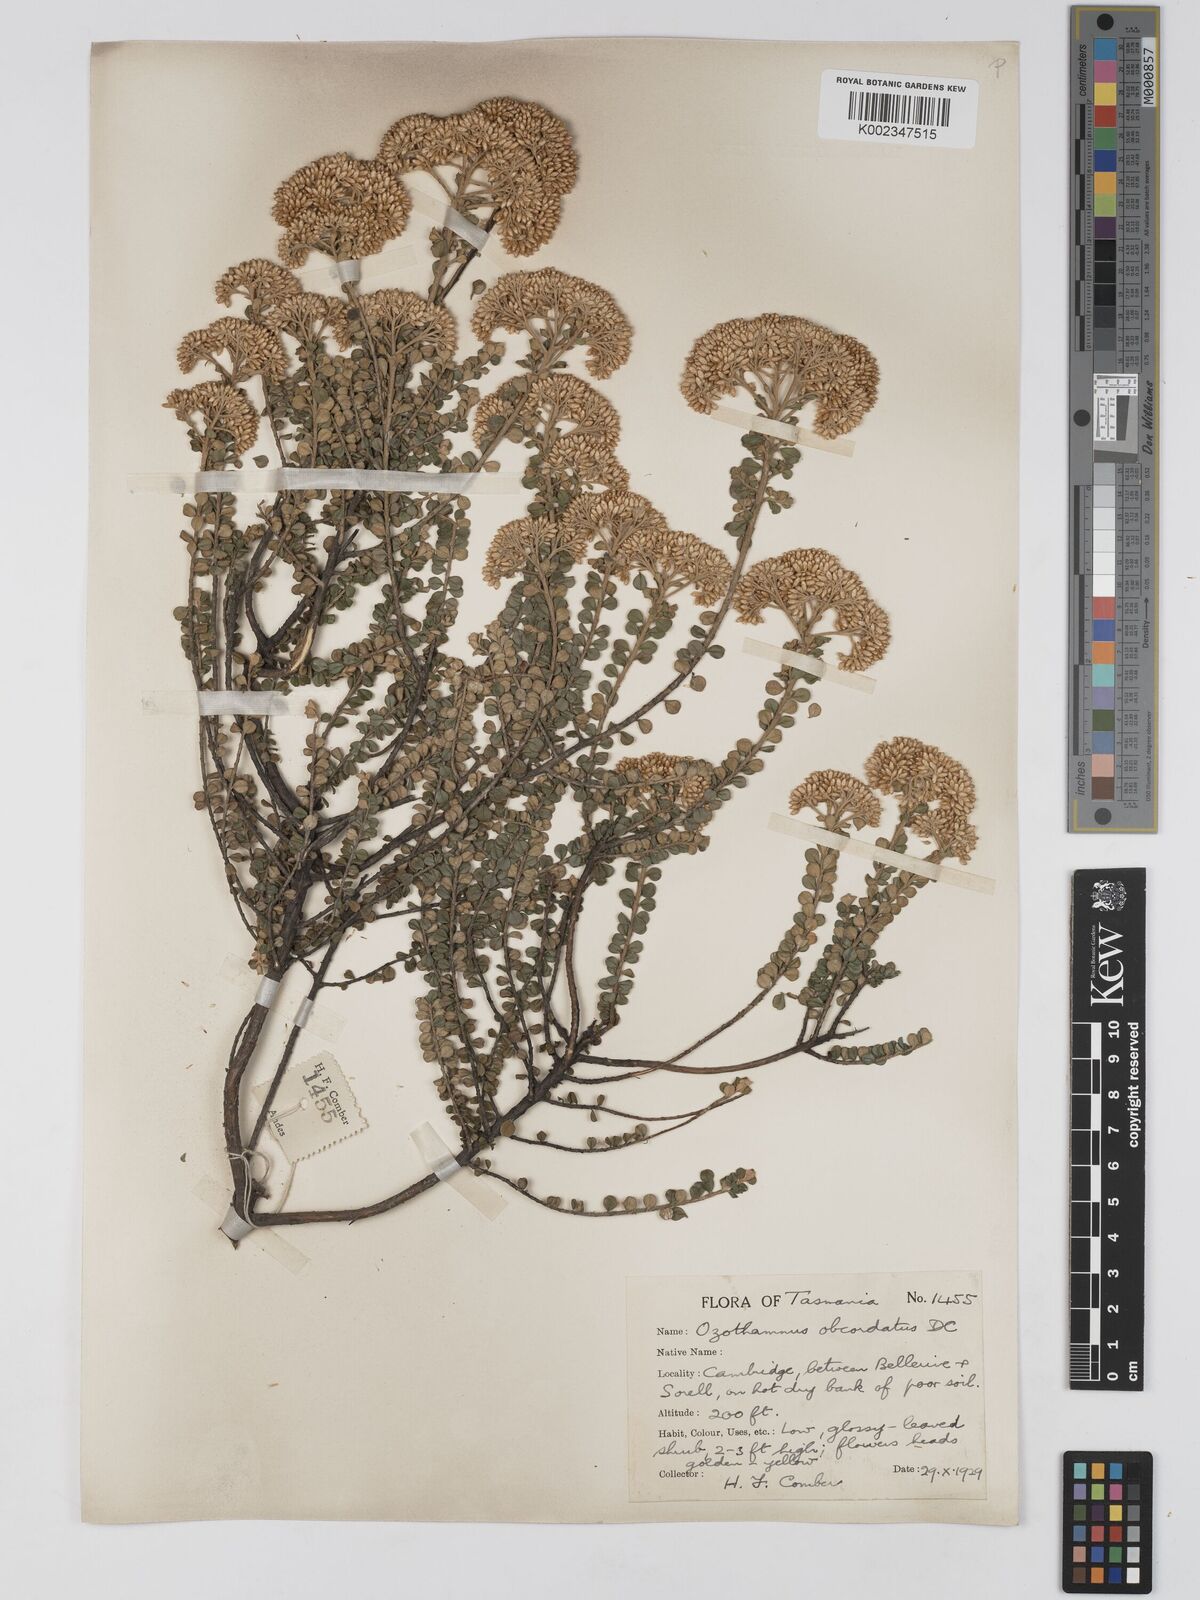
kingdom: Plantae
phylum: Tracheophyta
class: Magnoliopsida
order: Asterales
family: Asteraceae
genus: Ozothamnus
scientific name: Ozothamnus
